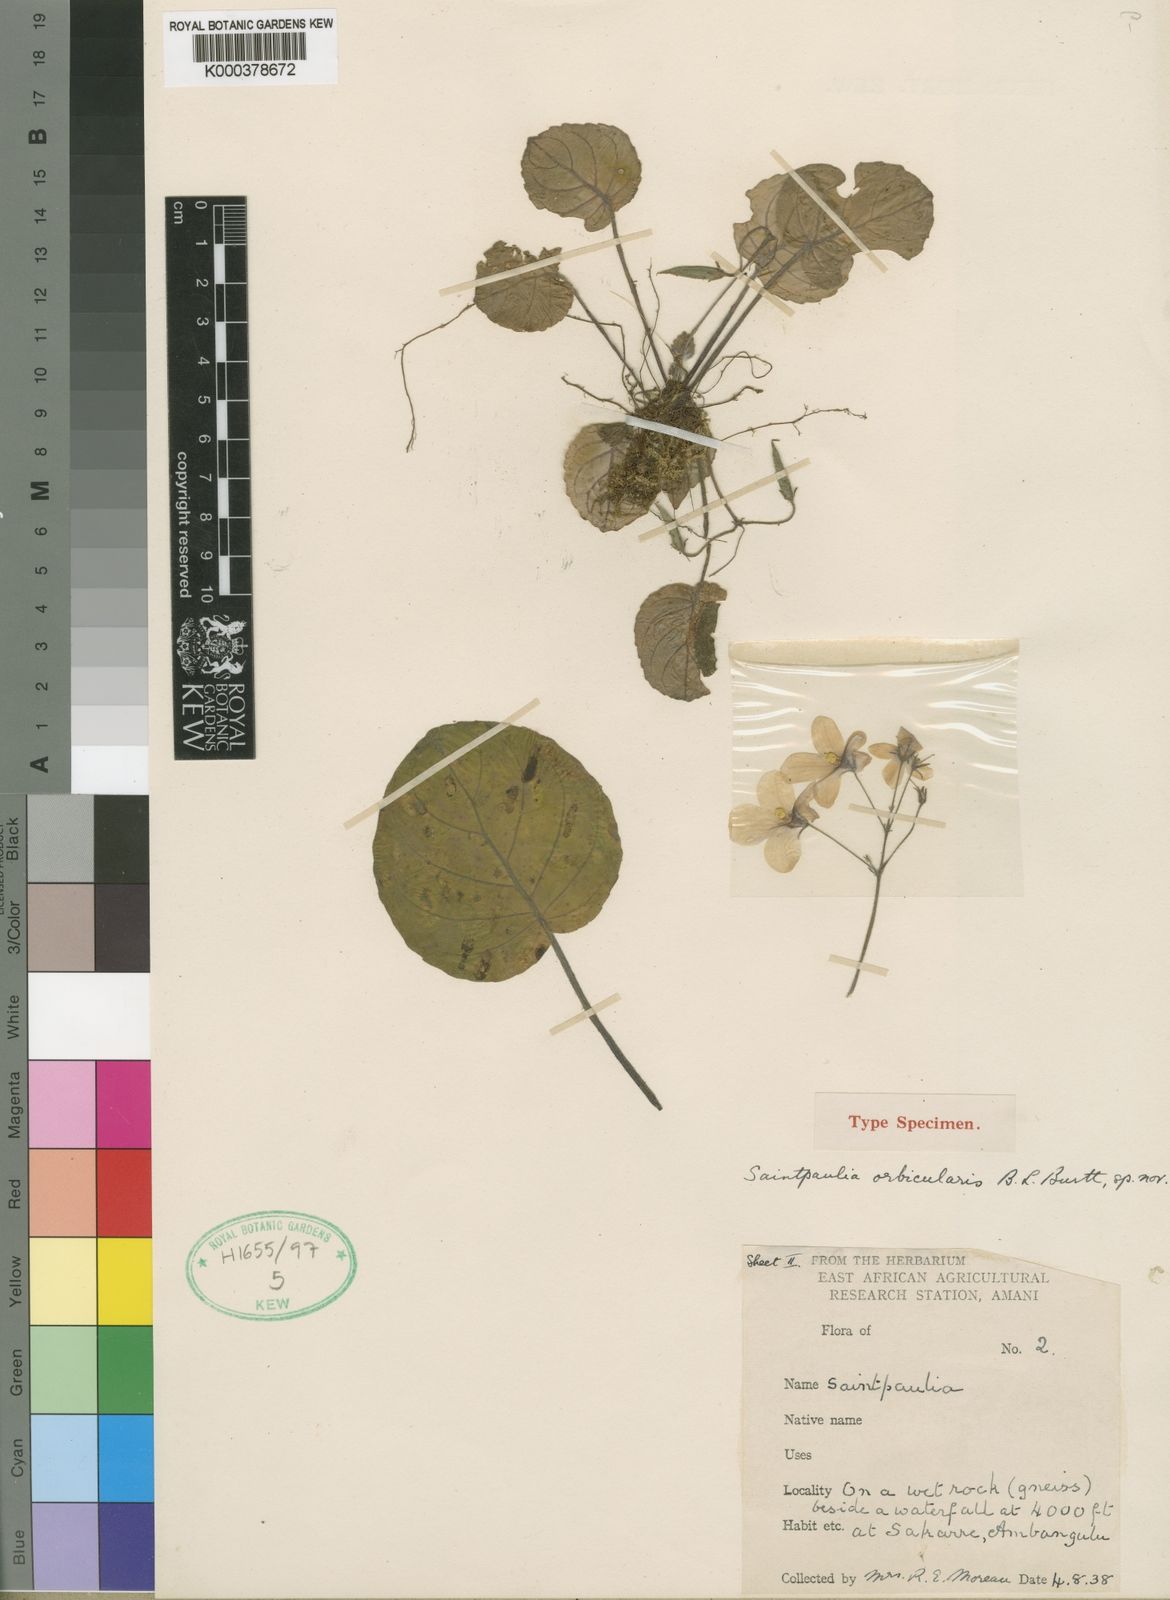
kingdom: Plantae
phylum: Tracheophyta
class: Magnoliopsida
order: Lamiales
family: Gesneriaceae
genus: Streptocarpus
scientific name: Streptocarpus ionanthus
